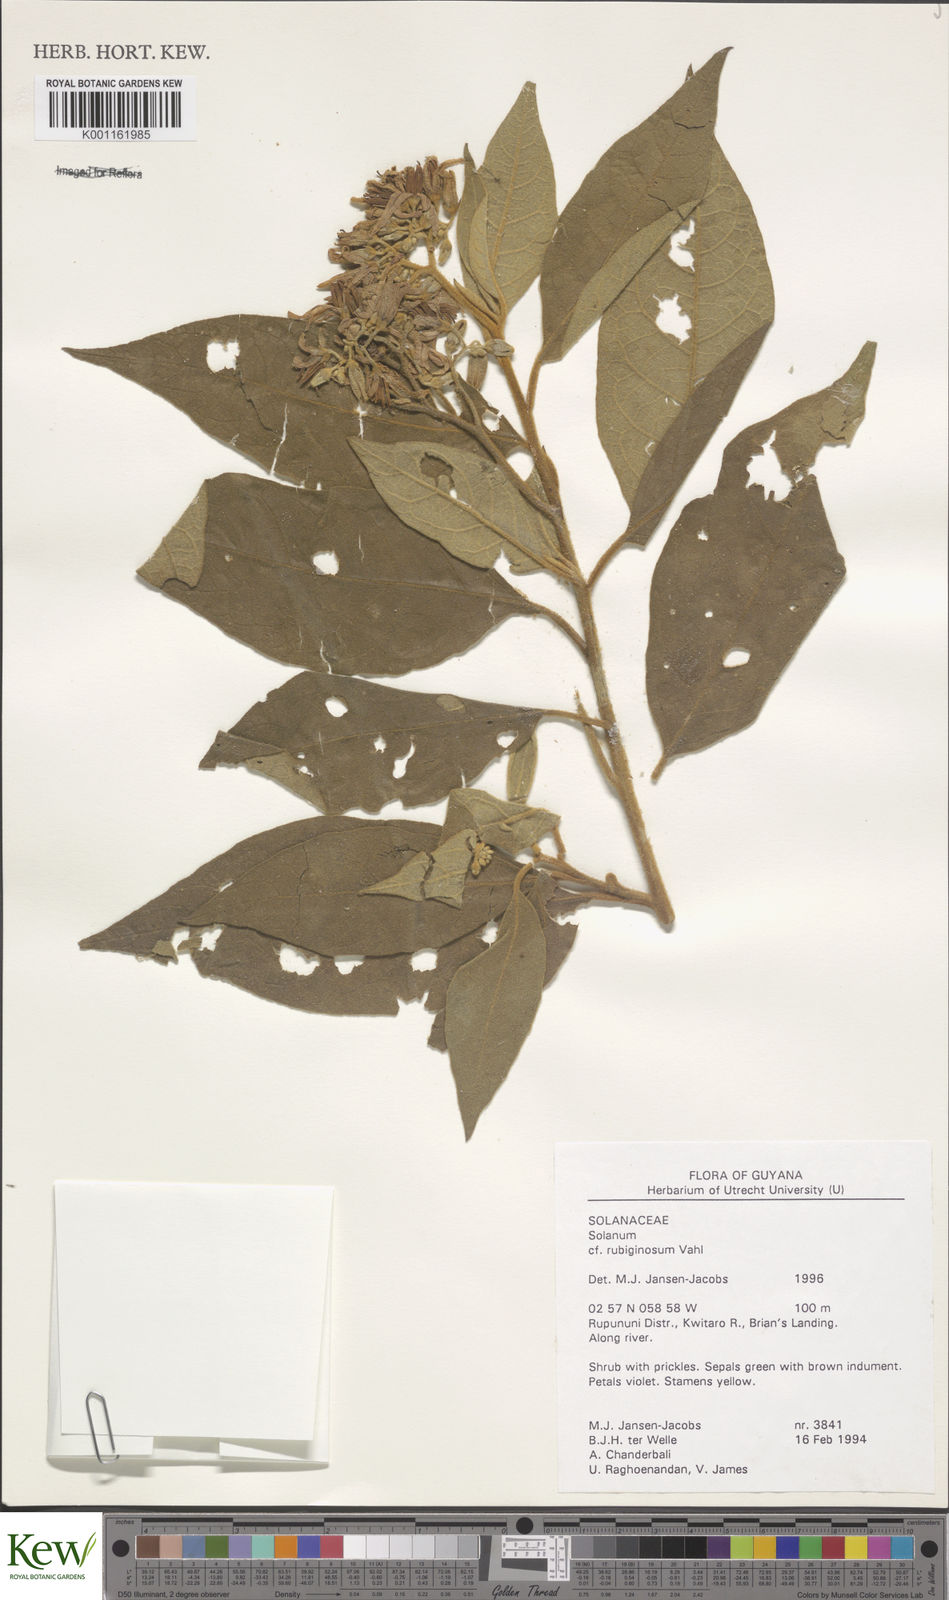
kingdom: Plantae
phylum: Tracheophyta
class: Magnoliopsida
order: Solanales
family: Solanaceae
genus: Solanum
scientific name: Solanum rubiginosum
